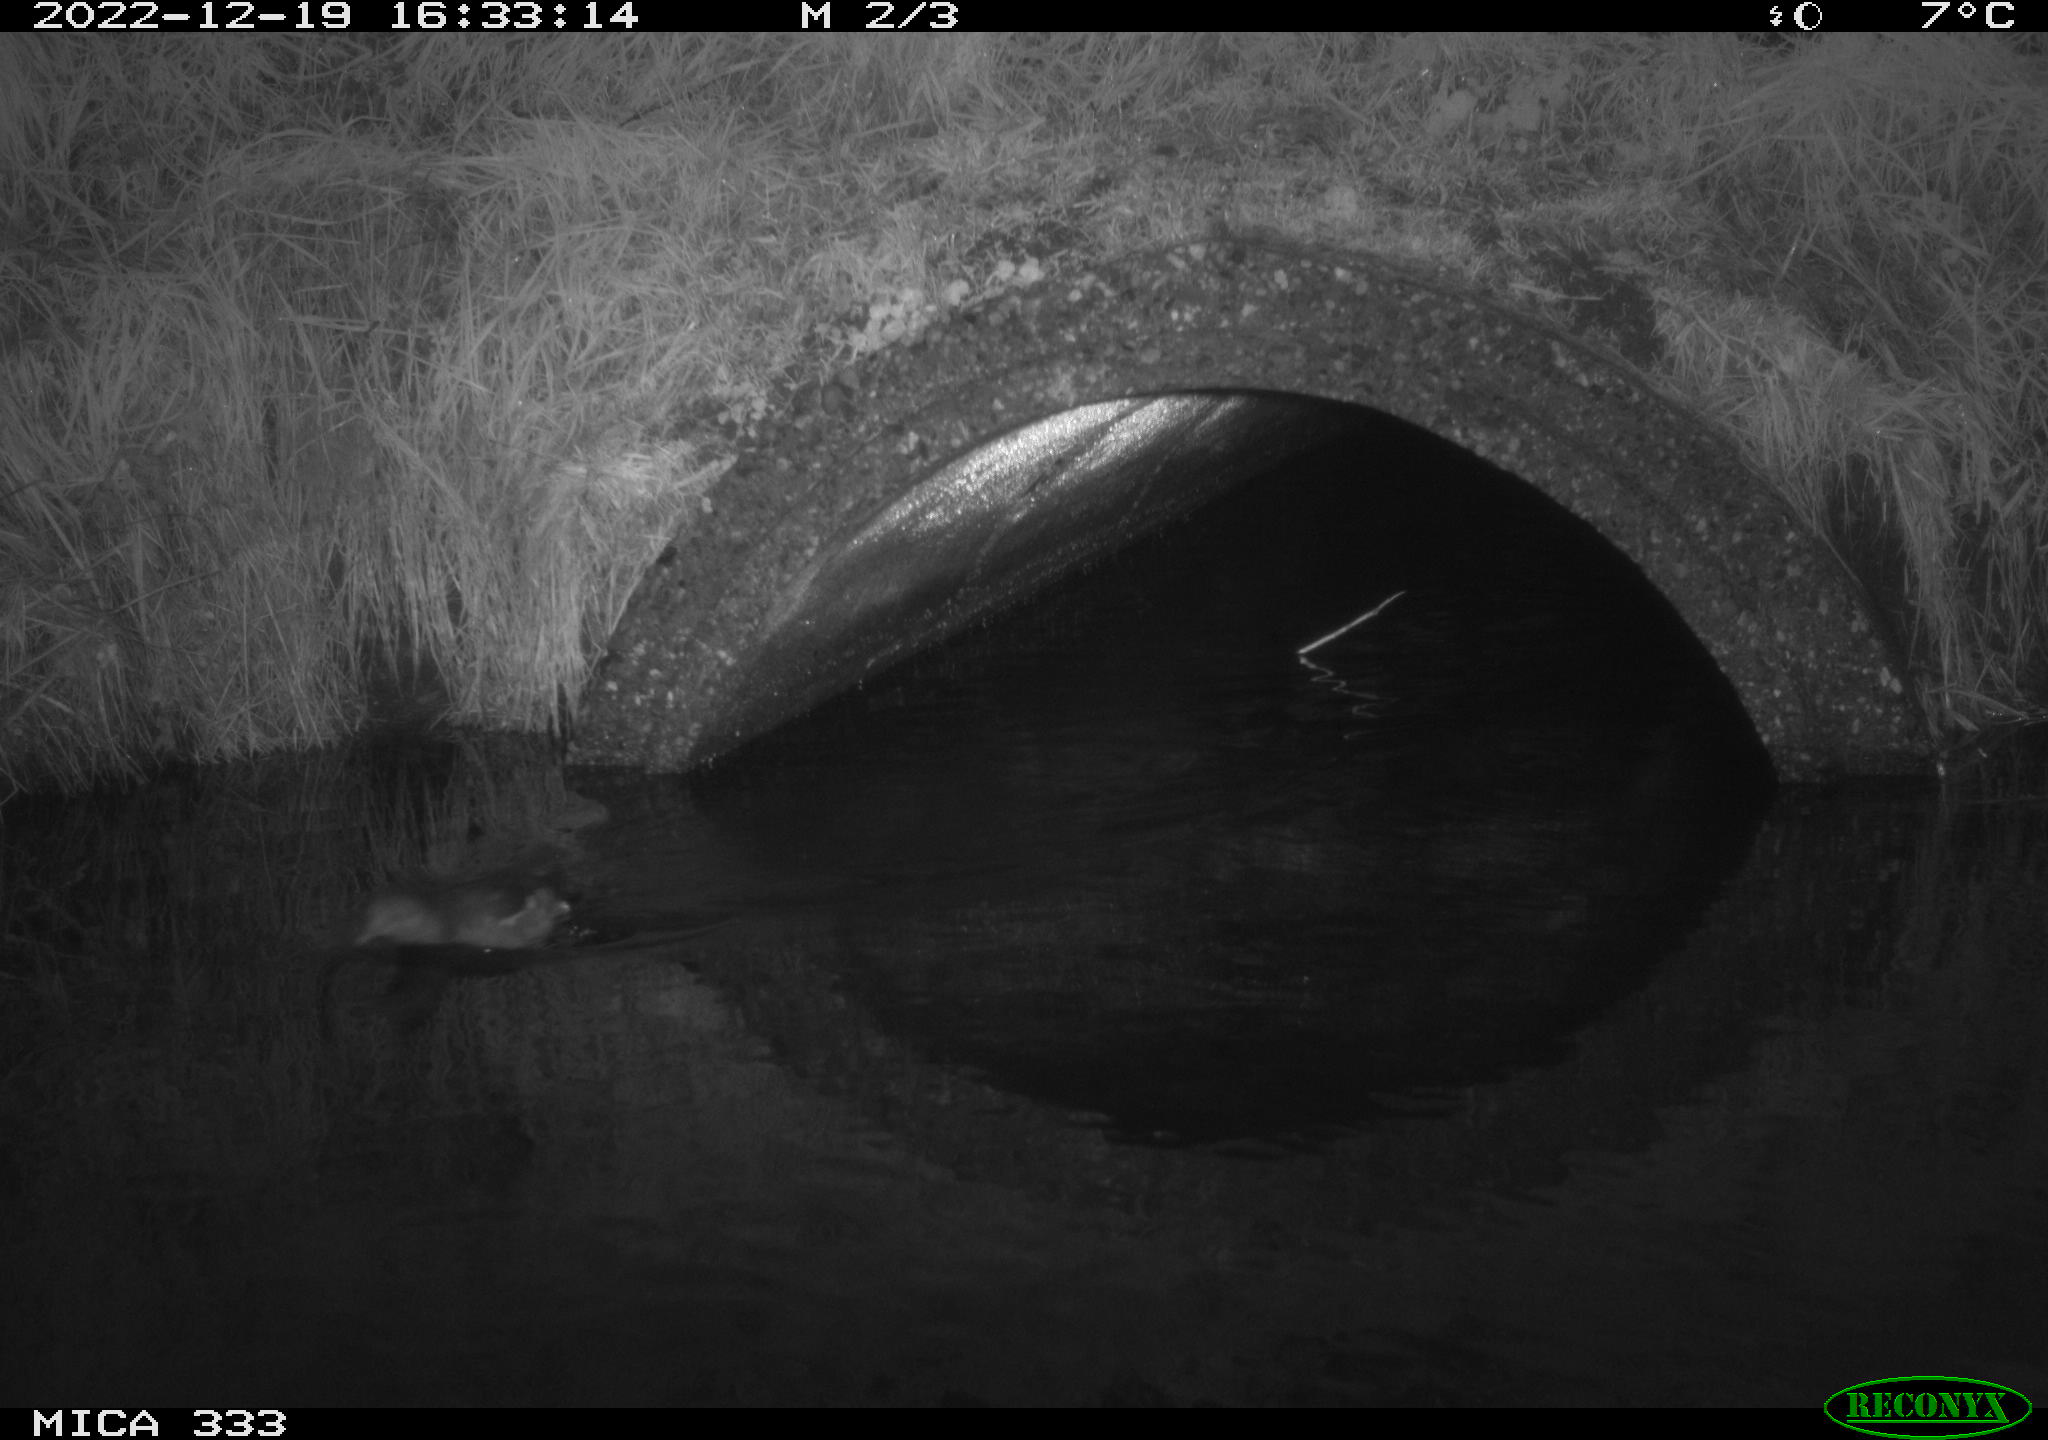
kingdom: Animalia
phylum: Chordata
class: Aves
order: Gruiformes
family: Rallidae
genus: Gallinula
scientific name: Gallinula chloropus
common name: Common moorhen
